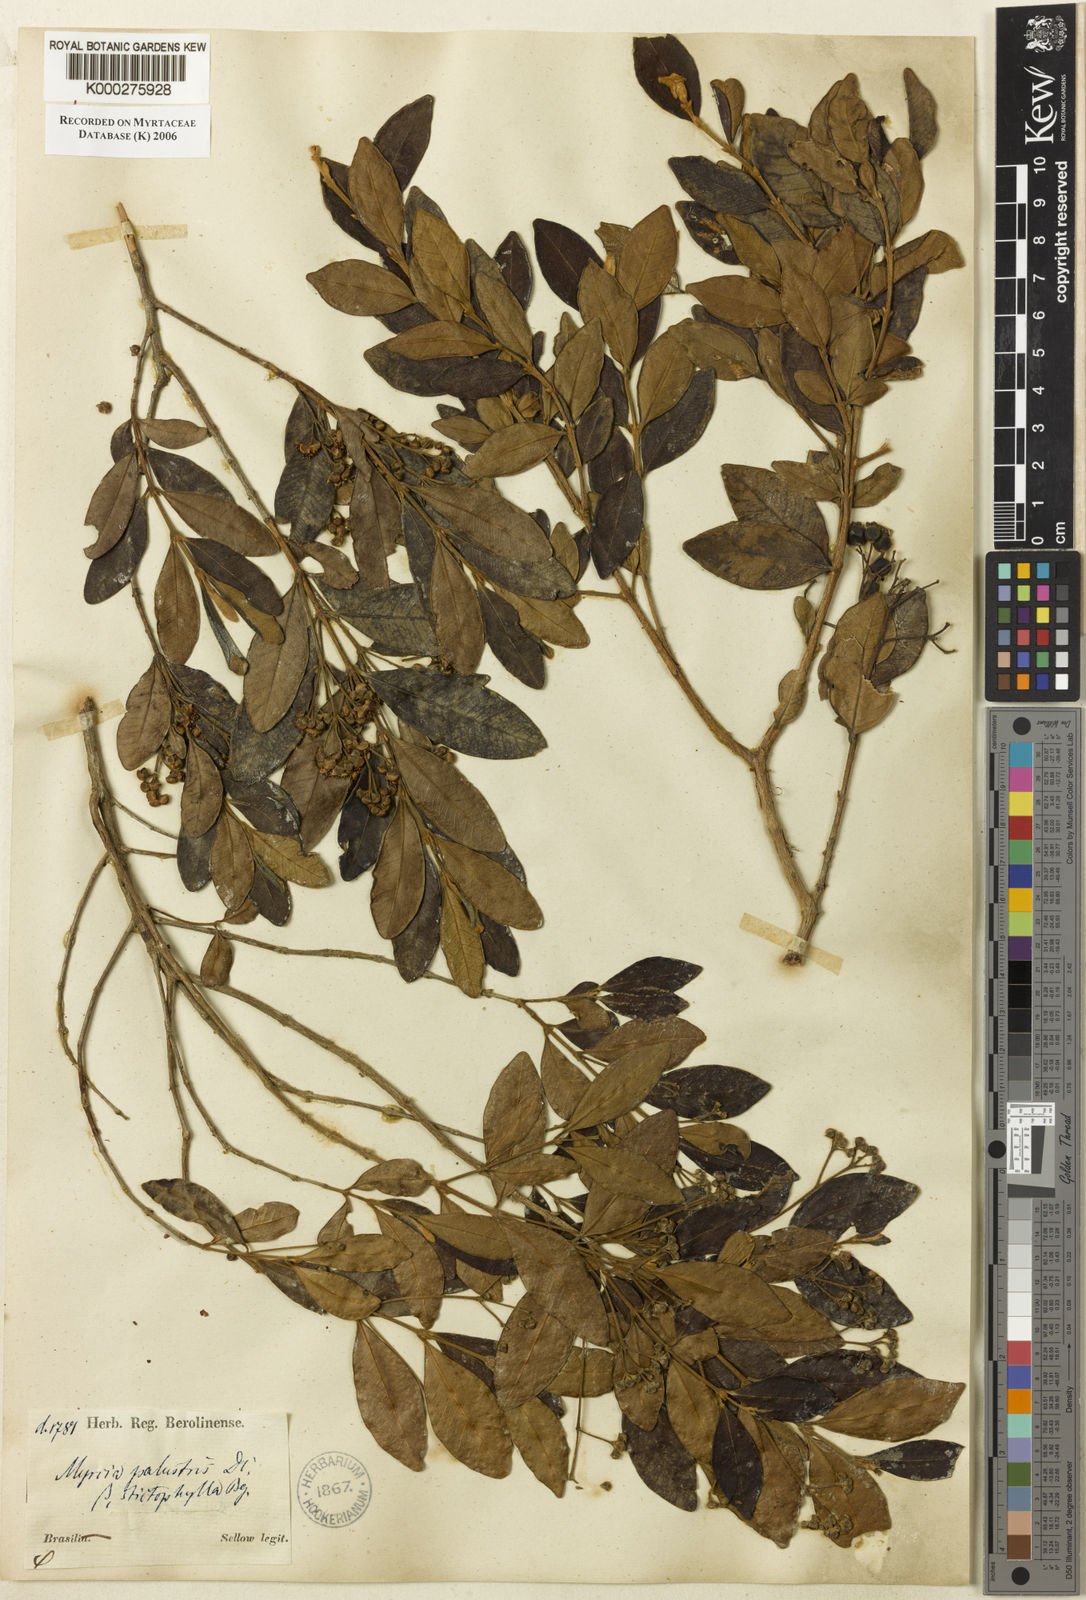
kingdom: Plantae
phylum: Tracheophyta
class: Magnoliopsida
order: Myrtales
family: Myrtaceae
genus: Myrcia
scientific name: Myrcia palustris
